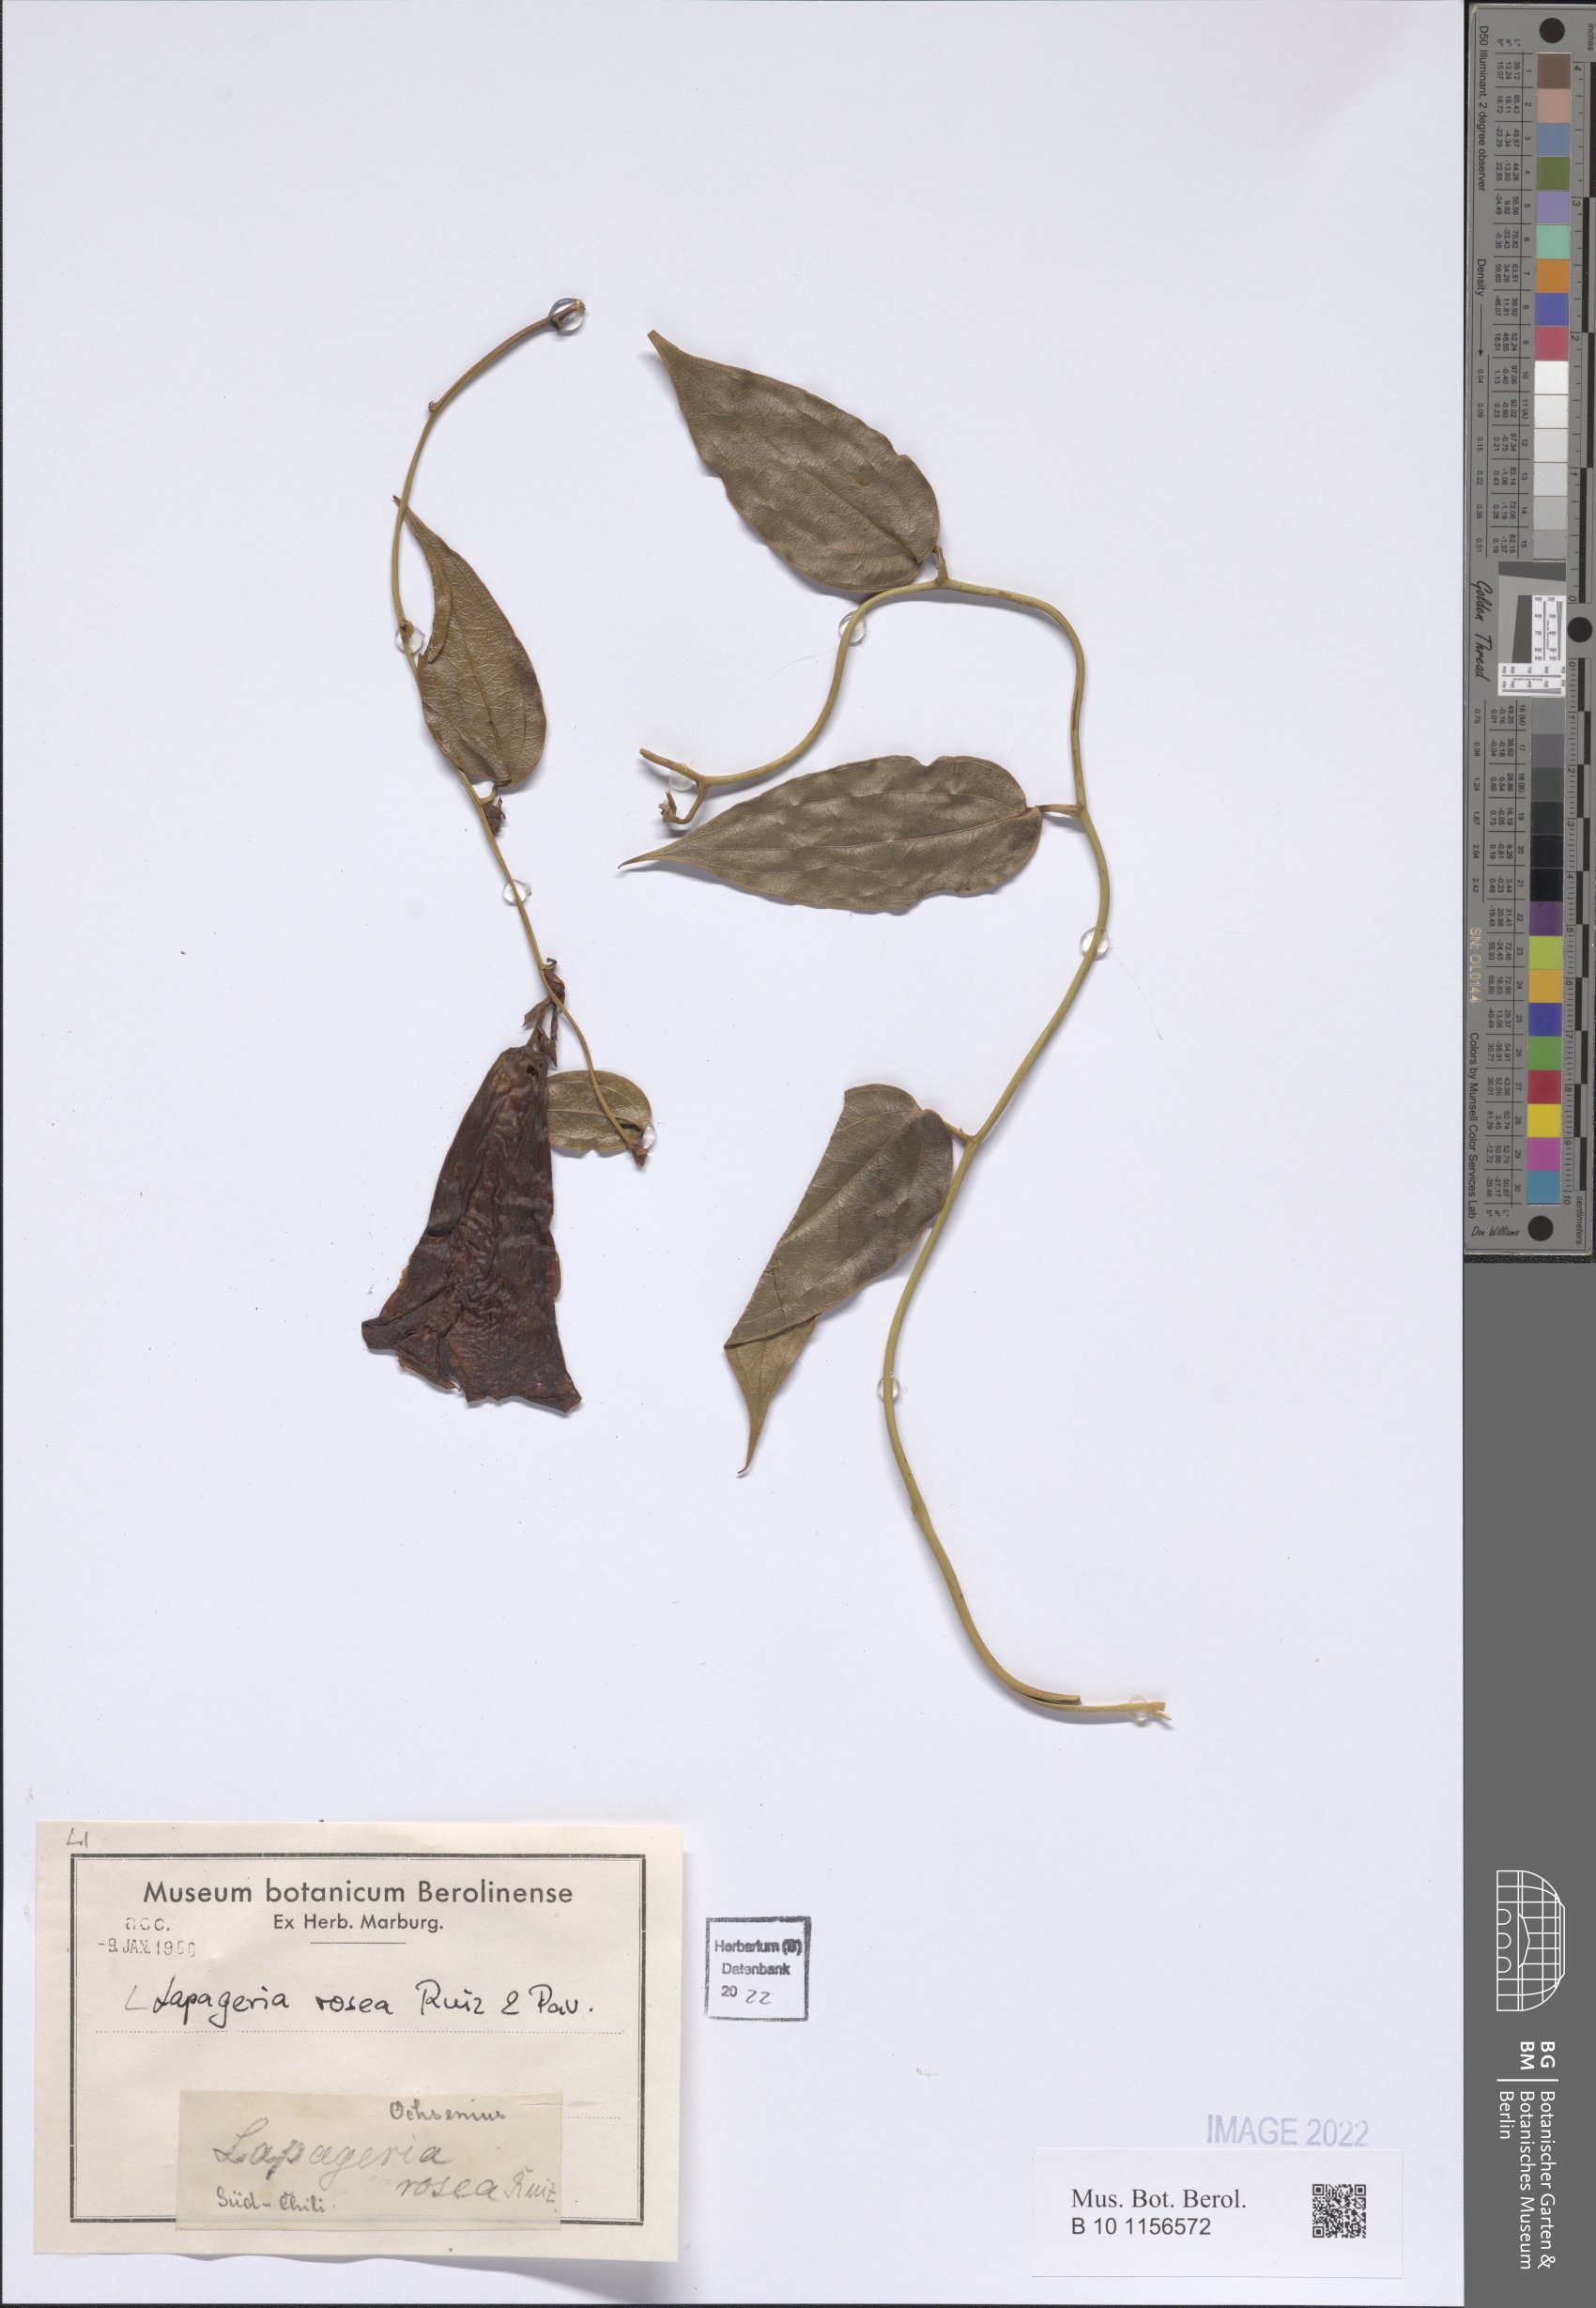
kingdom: Plantae
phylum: Tracheophyta
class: Liliopsida
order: Liliales
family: Philesiaceae
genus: Lapageria
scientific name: Lapageria rosea
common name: Chilean-bellflower
